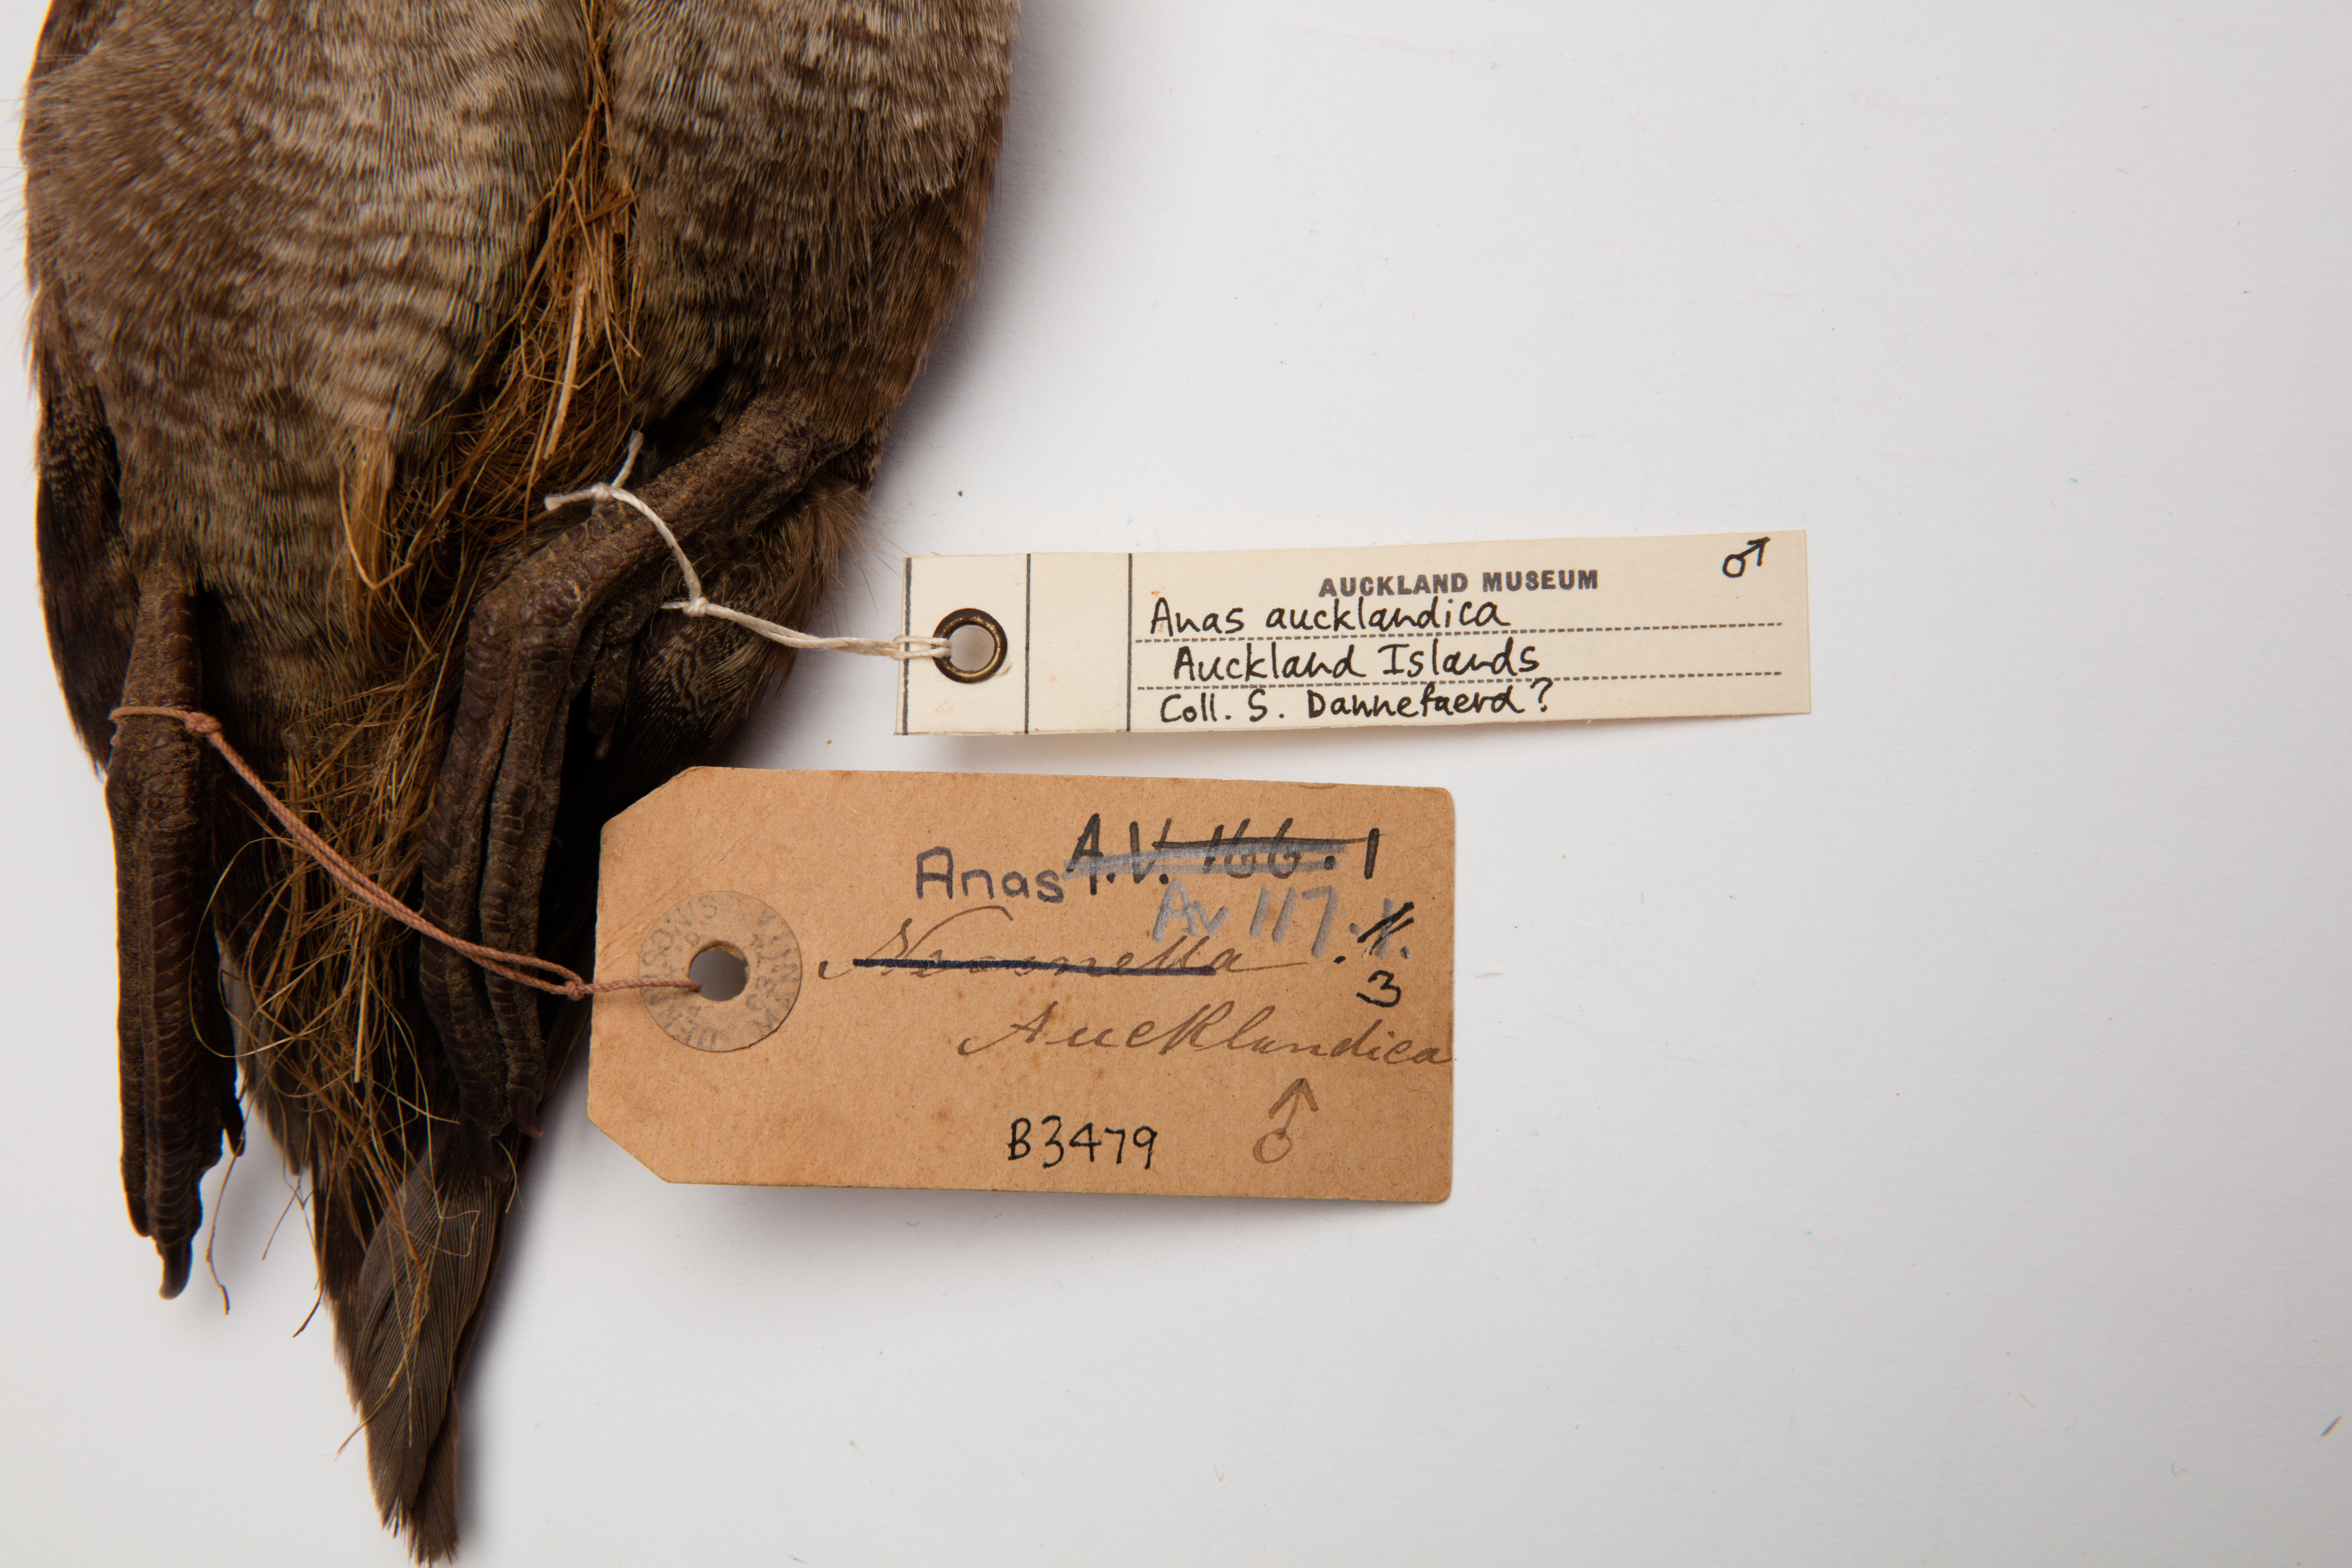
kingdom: Animalia
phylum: Chordata
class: Aves
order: Anseriformes
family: Anatidae
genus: Anas
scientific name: Anas aucklandica
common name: Auckland teal
